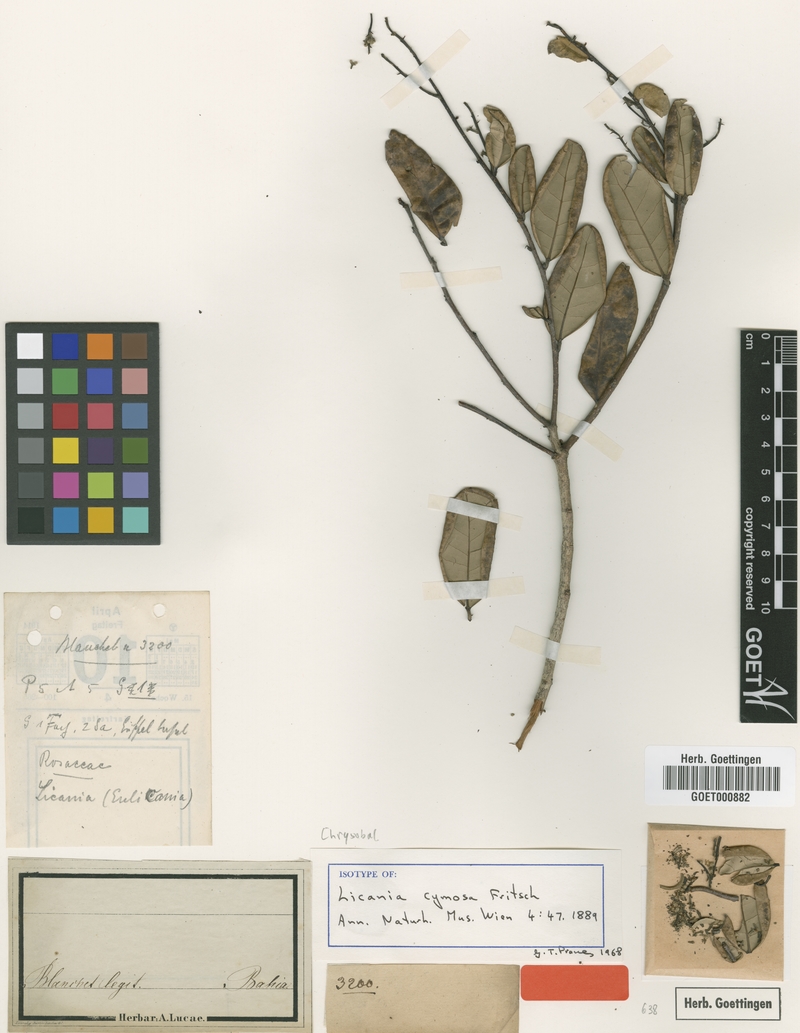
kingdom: Plantae
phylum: Tracheophyta
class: Magnoliopsida
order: Malpighiales
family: Chrysobalanaceae
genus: Licania
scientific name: Licania cymosa
